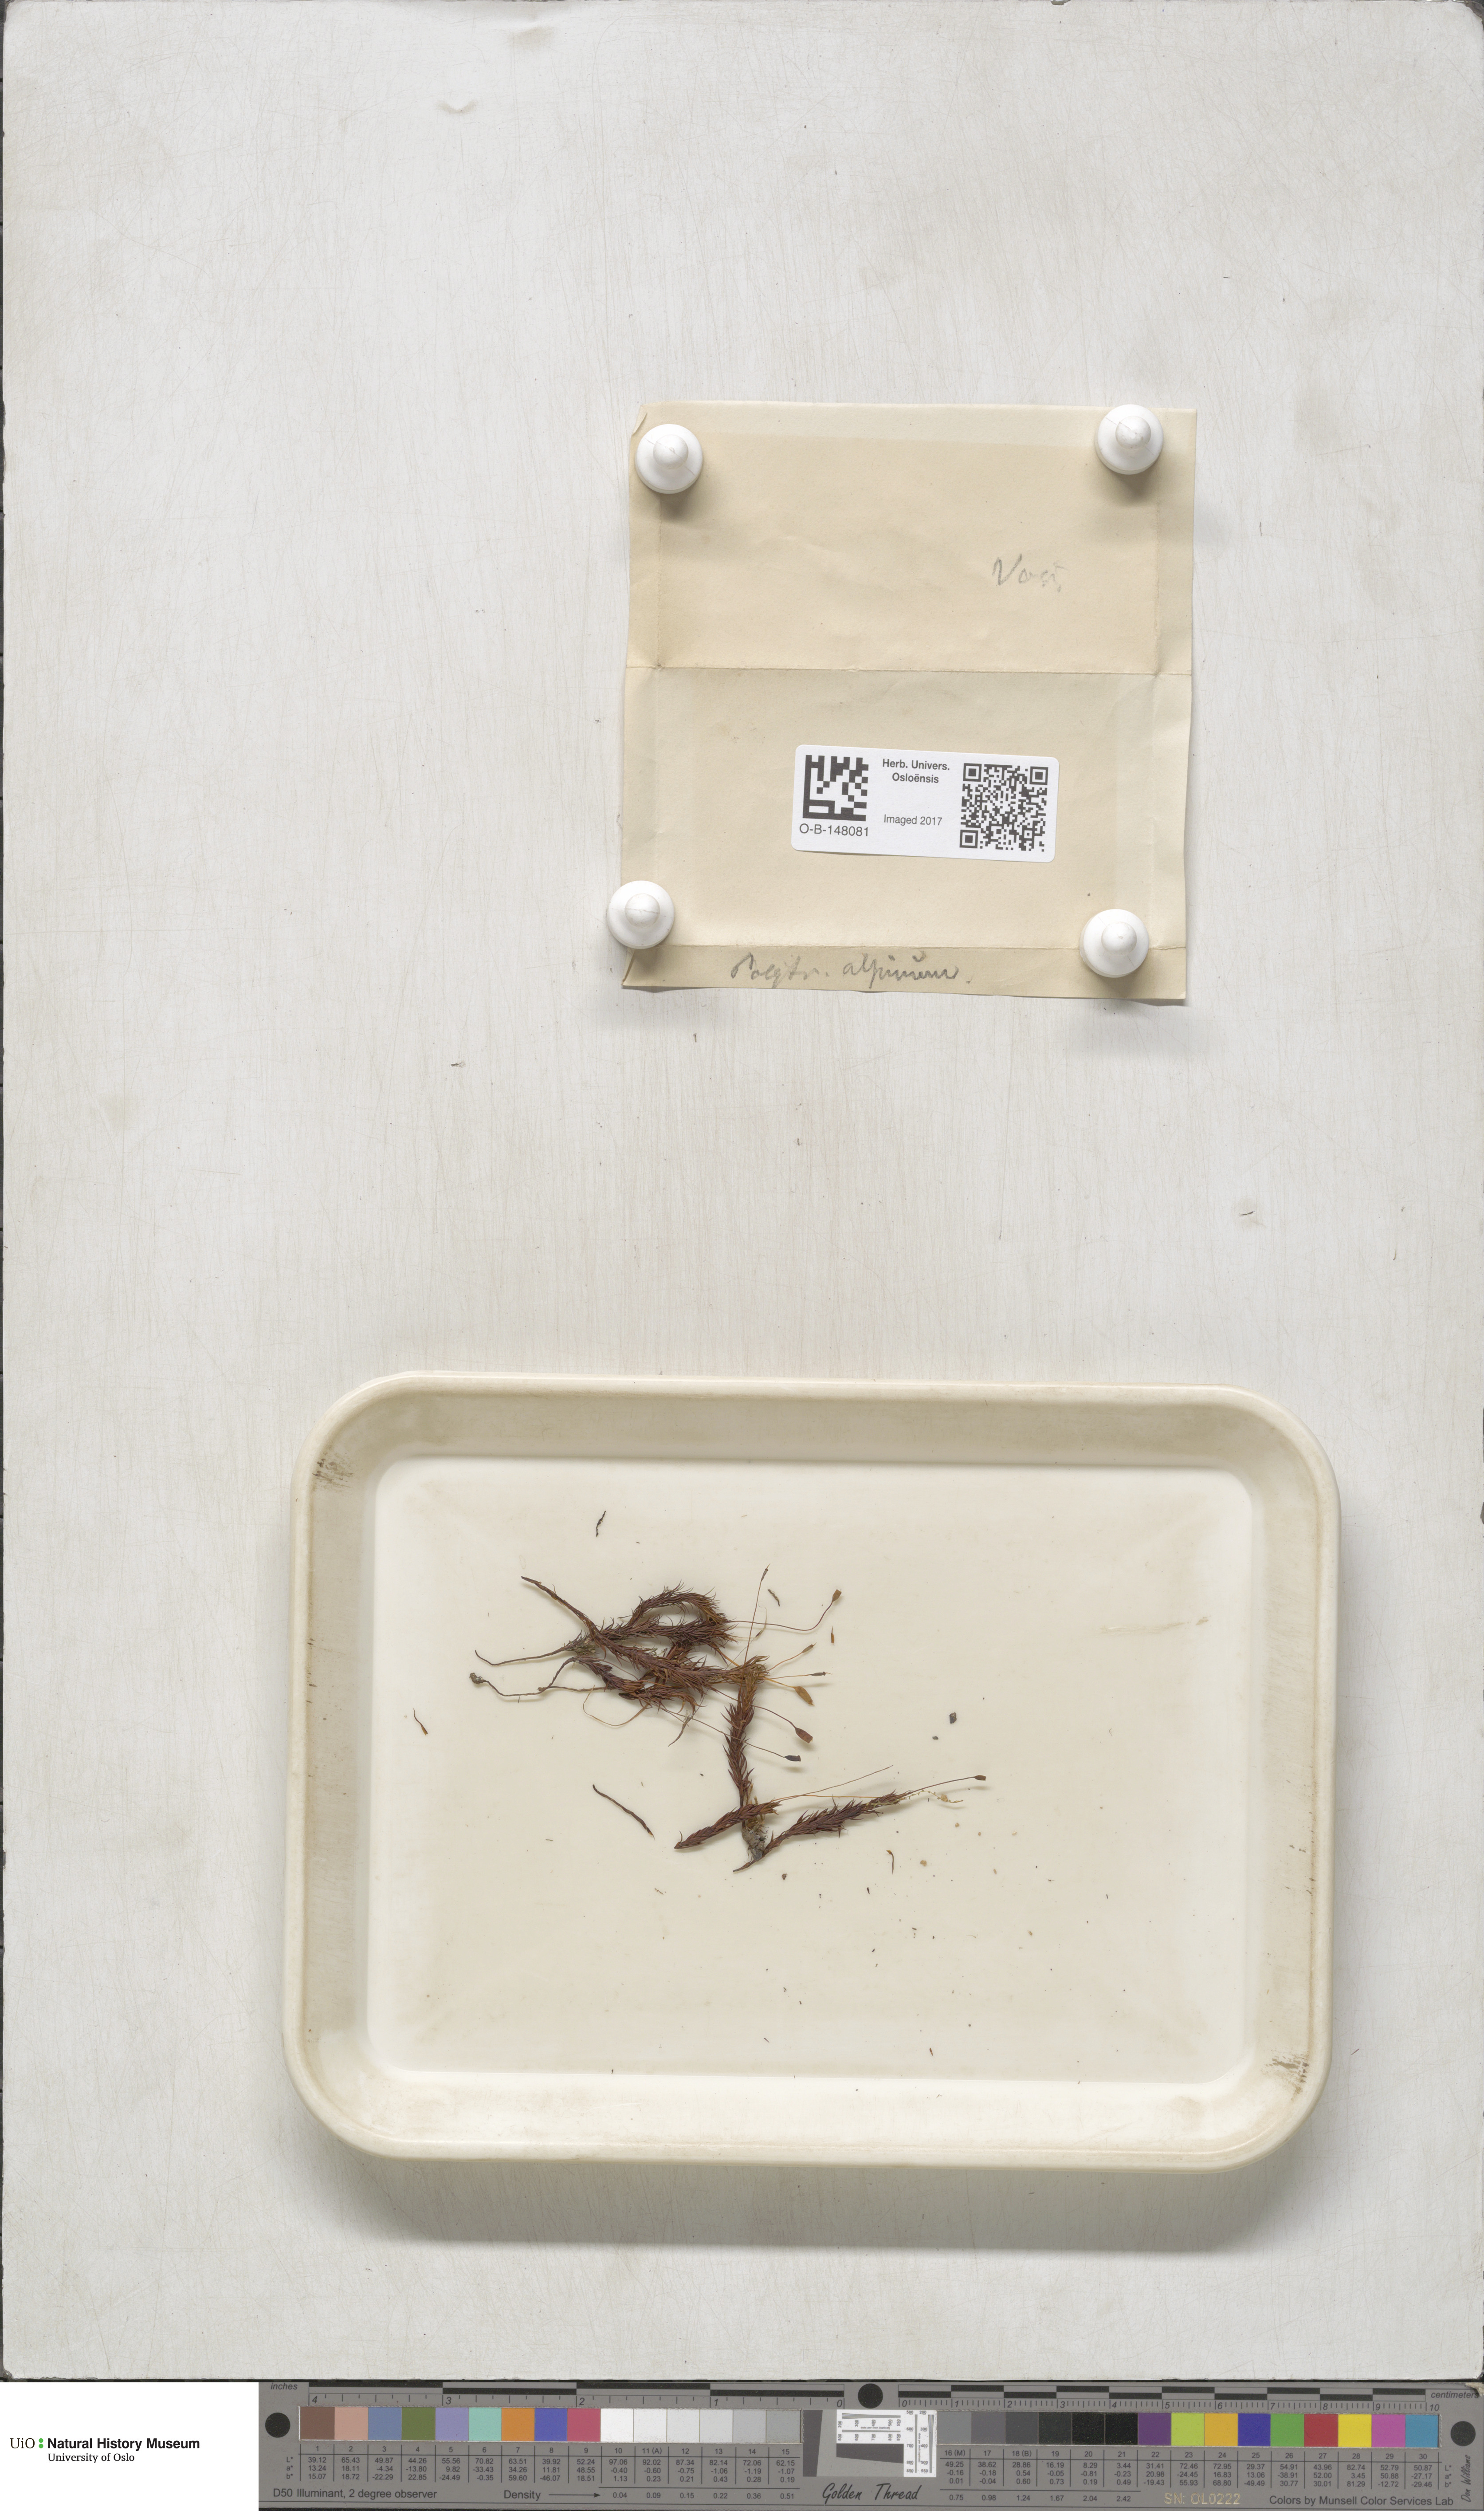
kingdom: Plantae
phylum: Bryophyta
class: Polytrichopsida
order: Polytrichales
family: Polytrichaceae
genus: Polytrichastrum
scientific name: Polytrichastrum alpinum
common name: Alpine haircap
